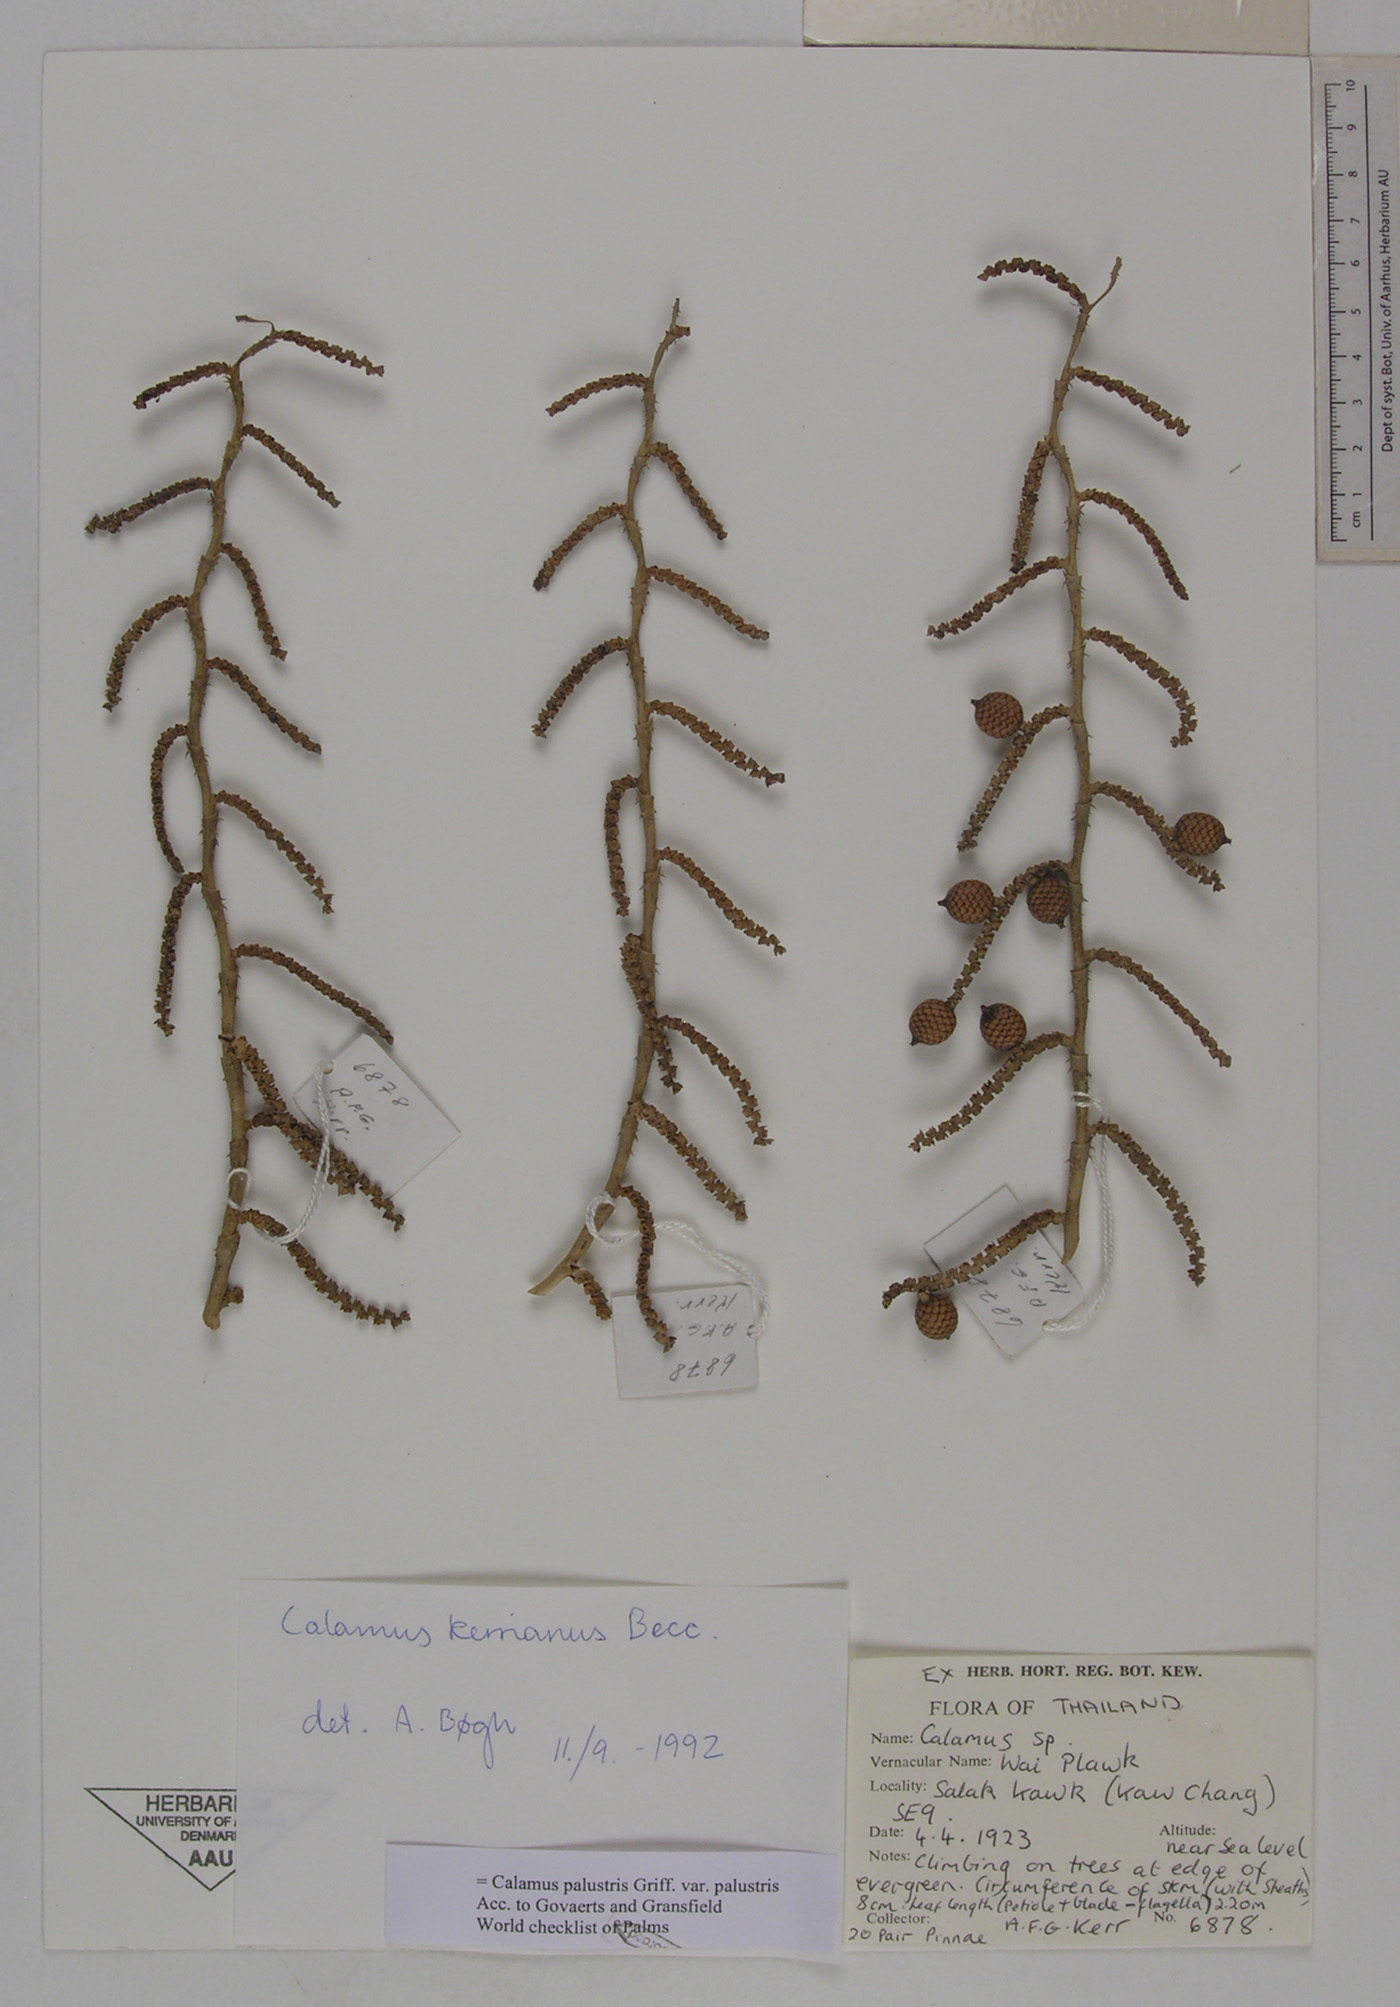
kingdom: Plantae
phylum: Tracheophyta
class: Liliopsida
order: Arecales
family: Arecaceae
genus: Calamus
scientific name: Calamus latifolius
